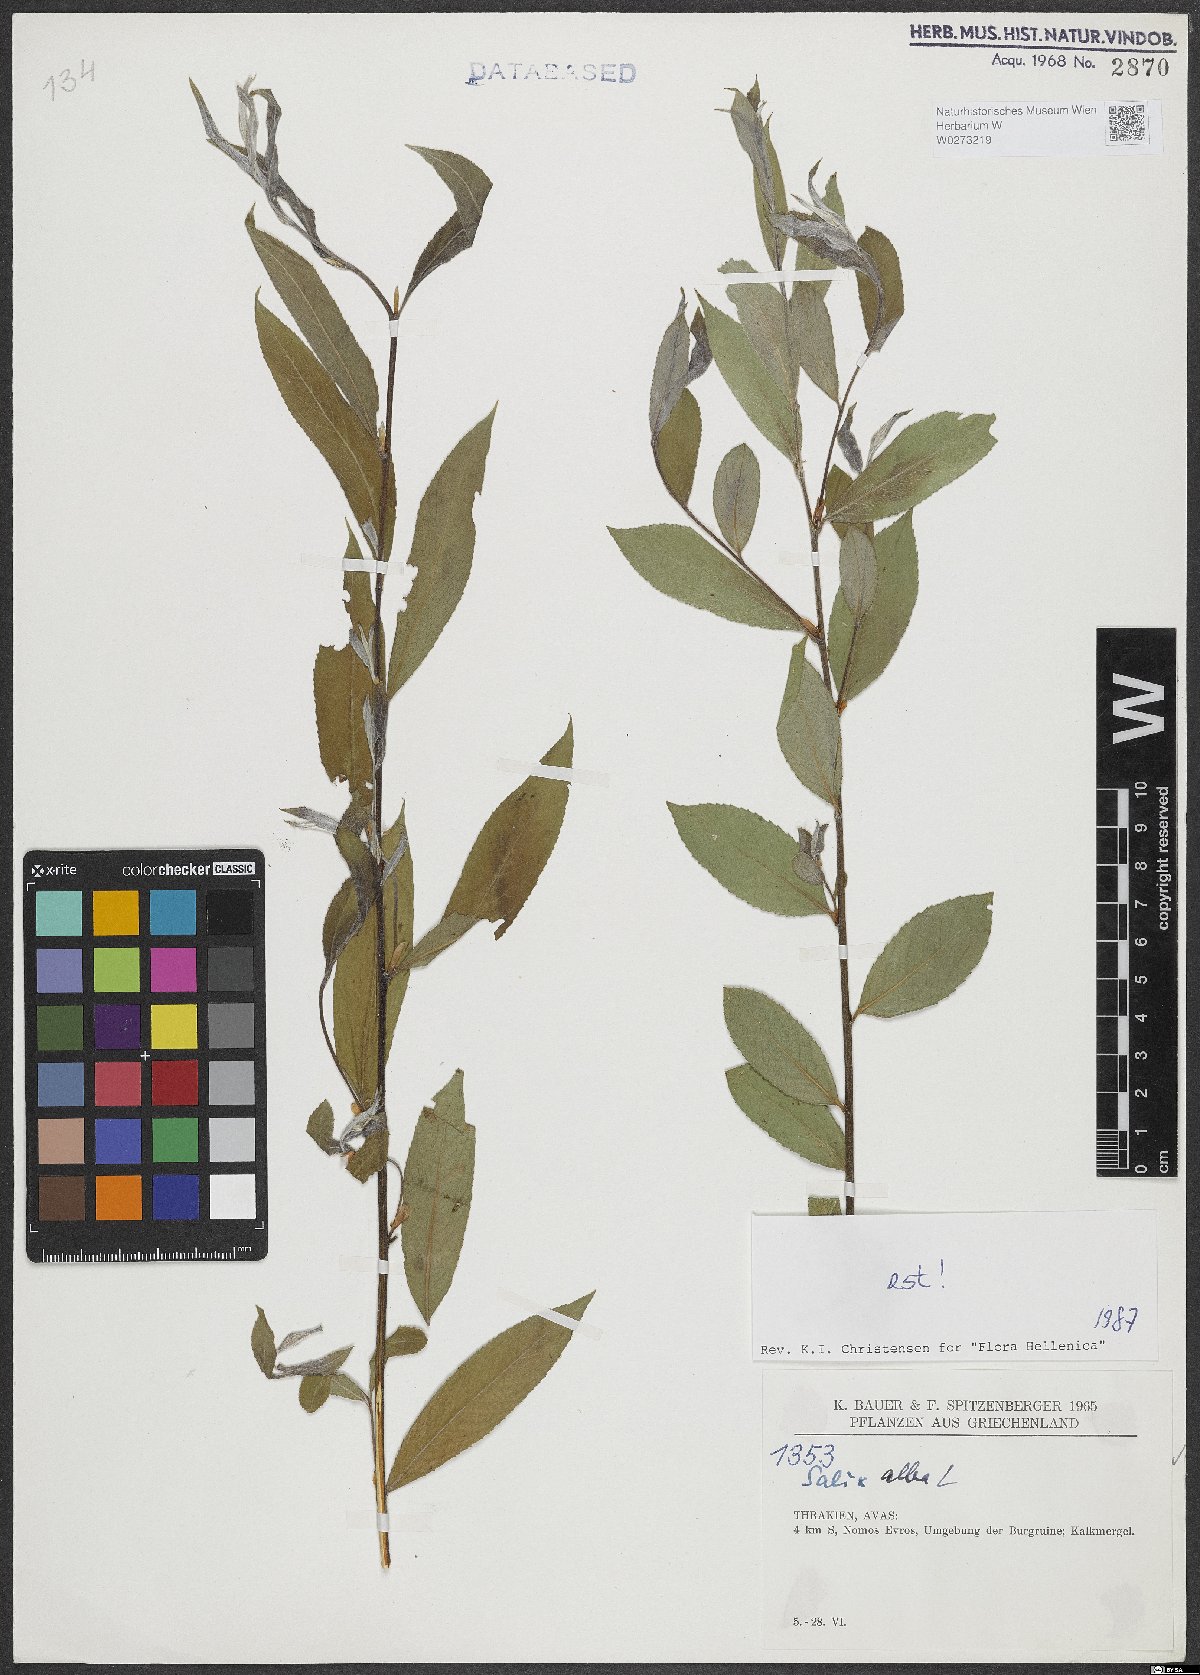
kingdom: Plantae
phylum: Tracheophyta
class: Magnoliopsida
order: Malpighiales
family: Salicaceae
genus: Salix
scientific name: Salix alba
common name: White willow
